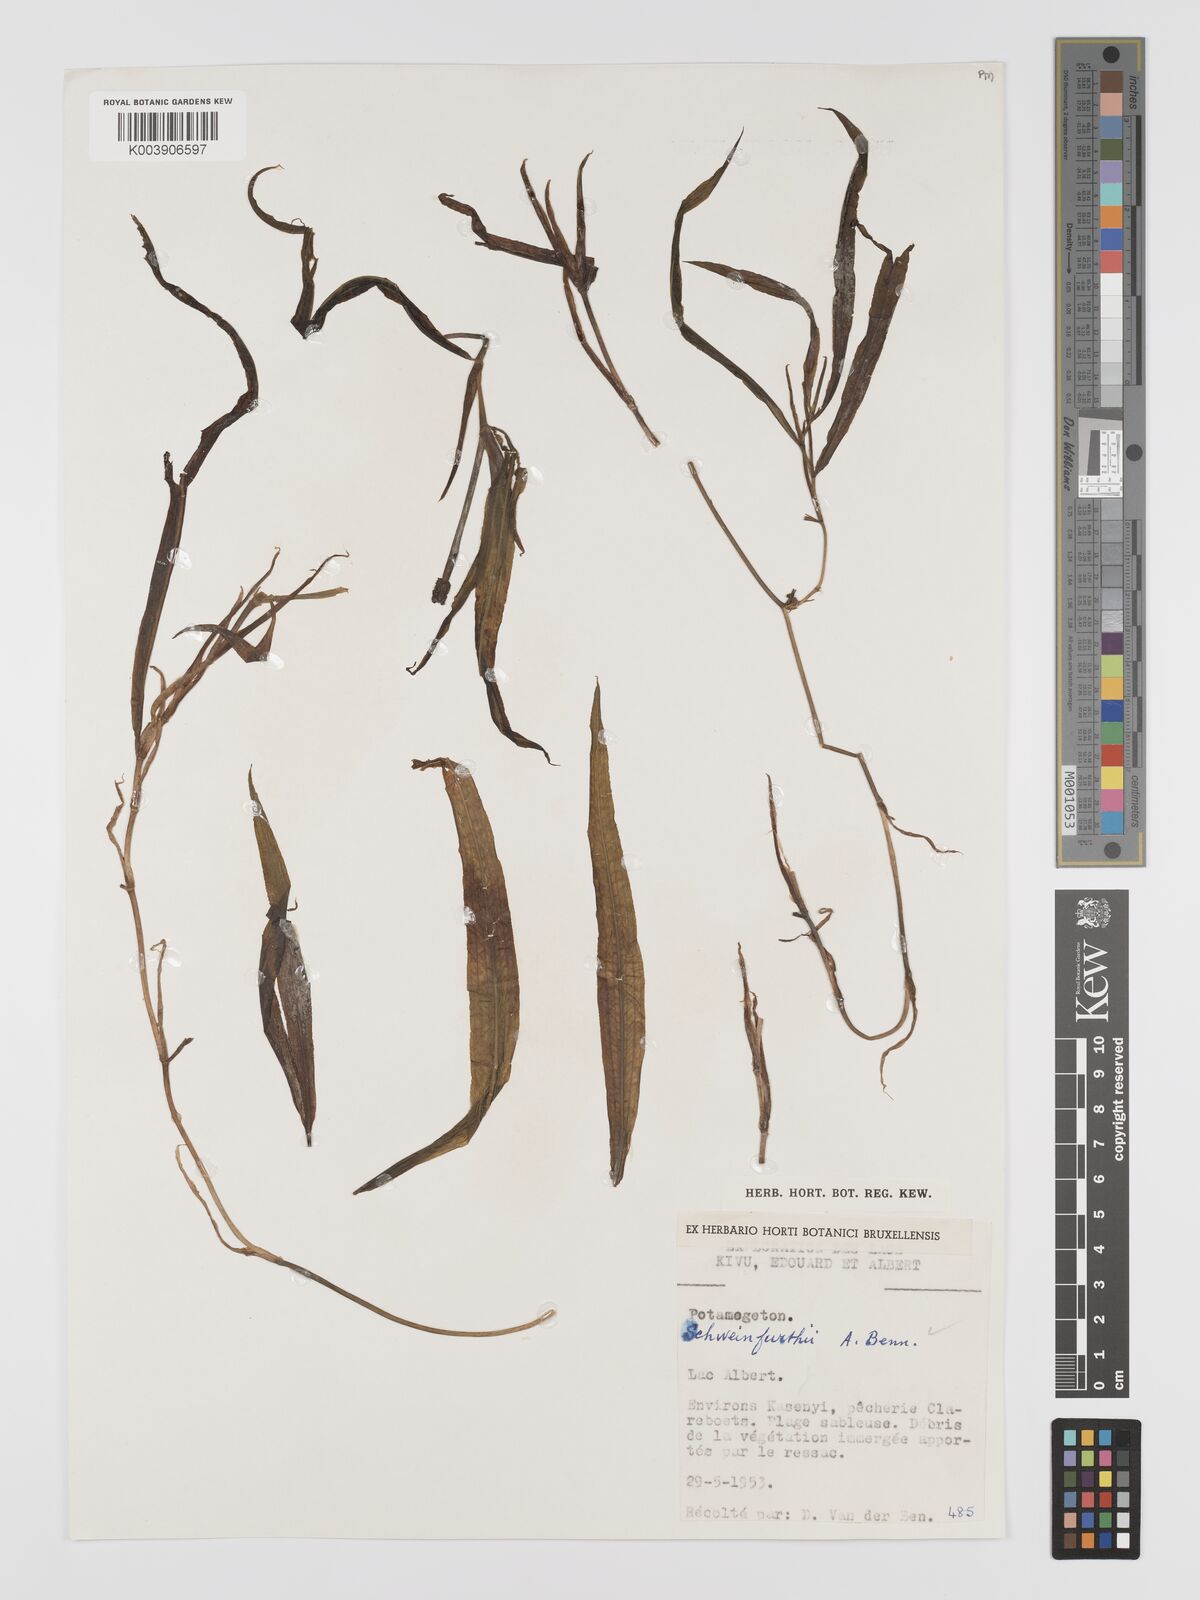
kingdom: Plantae
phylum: Tracheophyta
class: Liliopsida
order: Alismatales
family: Potamogetonaceae
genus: Potamogeton
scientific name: Potamogeton schweinfurthii
